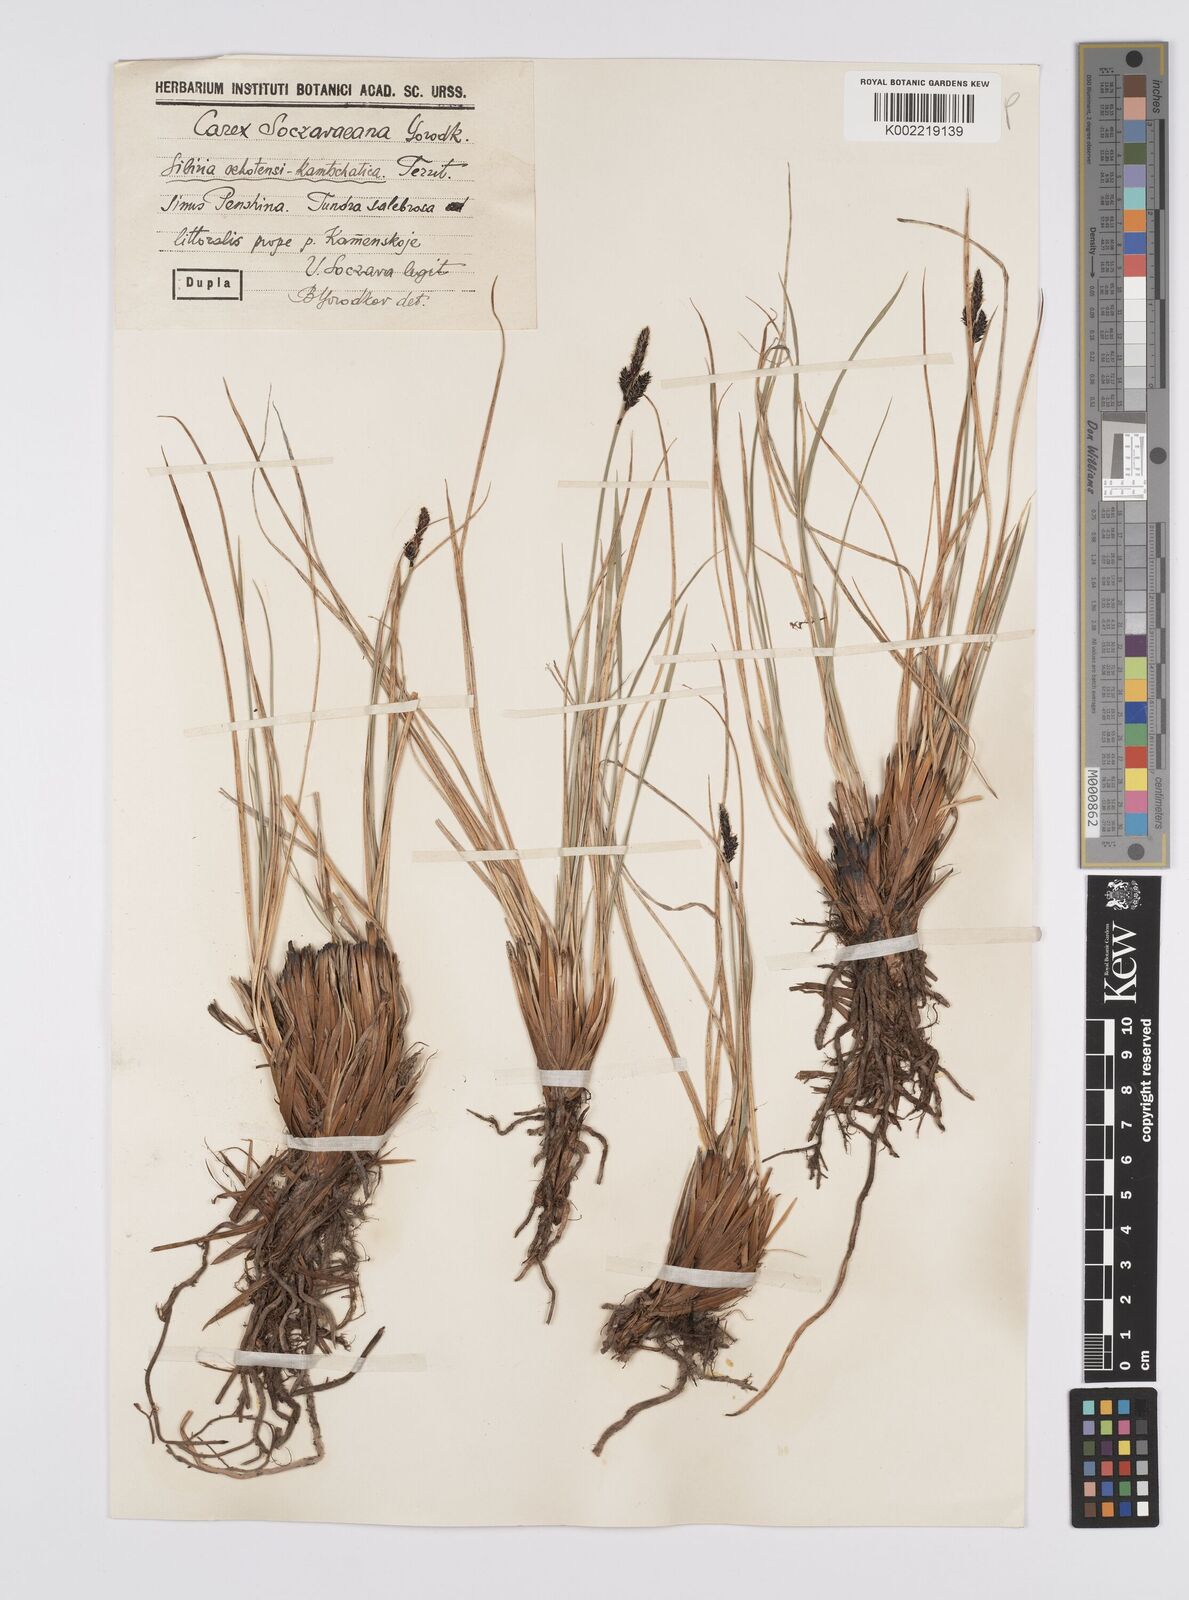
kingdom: Plantae
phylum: Tracheophyta
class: Liliopsida
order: Poales
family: Cyperaceae
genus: Carex
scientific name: Carex soczavaeana
